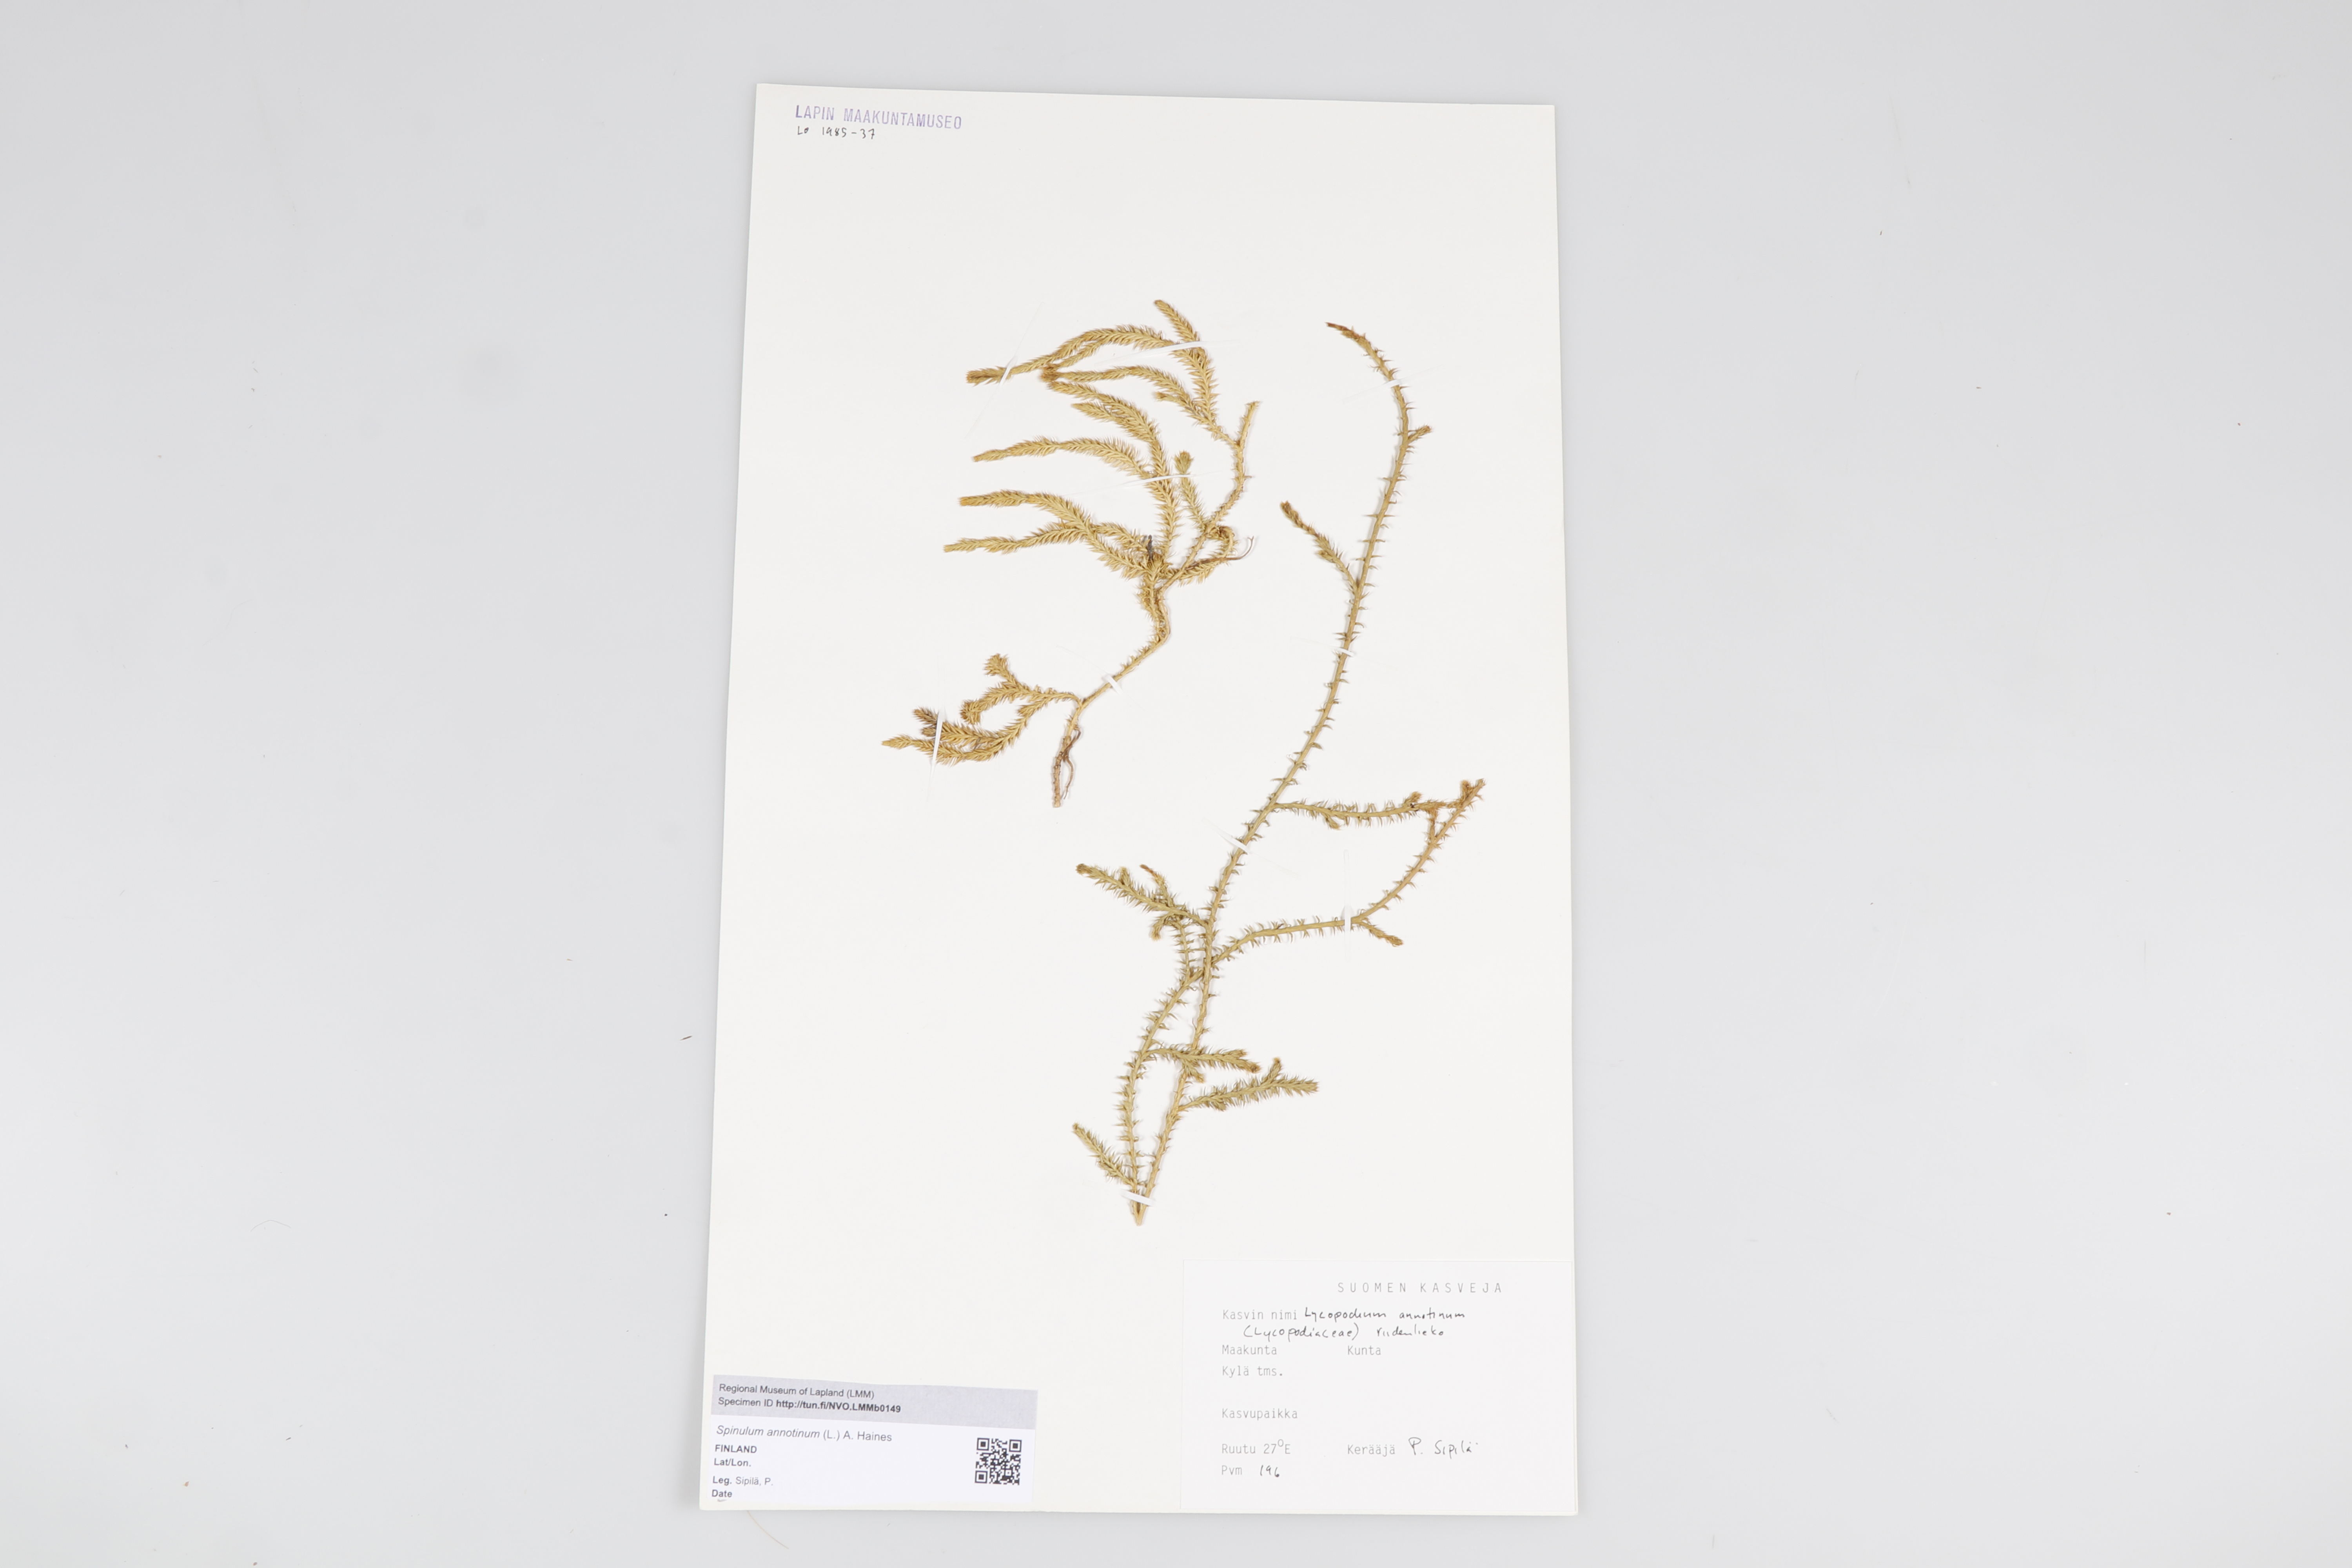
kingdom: Plantae
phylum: Tracheophyta
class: Lycopodiopsida
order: Lycopodiales
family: Lycopodiaceae
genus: Spinulum
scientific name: Spinulum annotinum
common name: Interrupted club-moss
